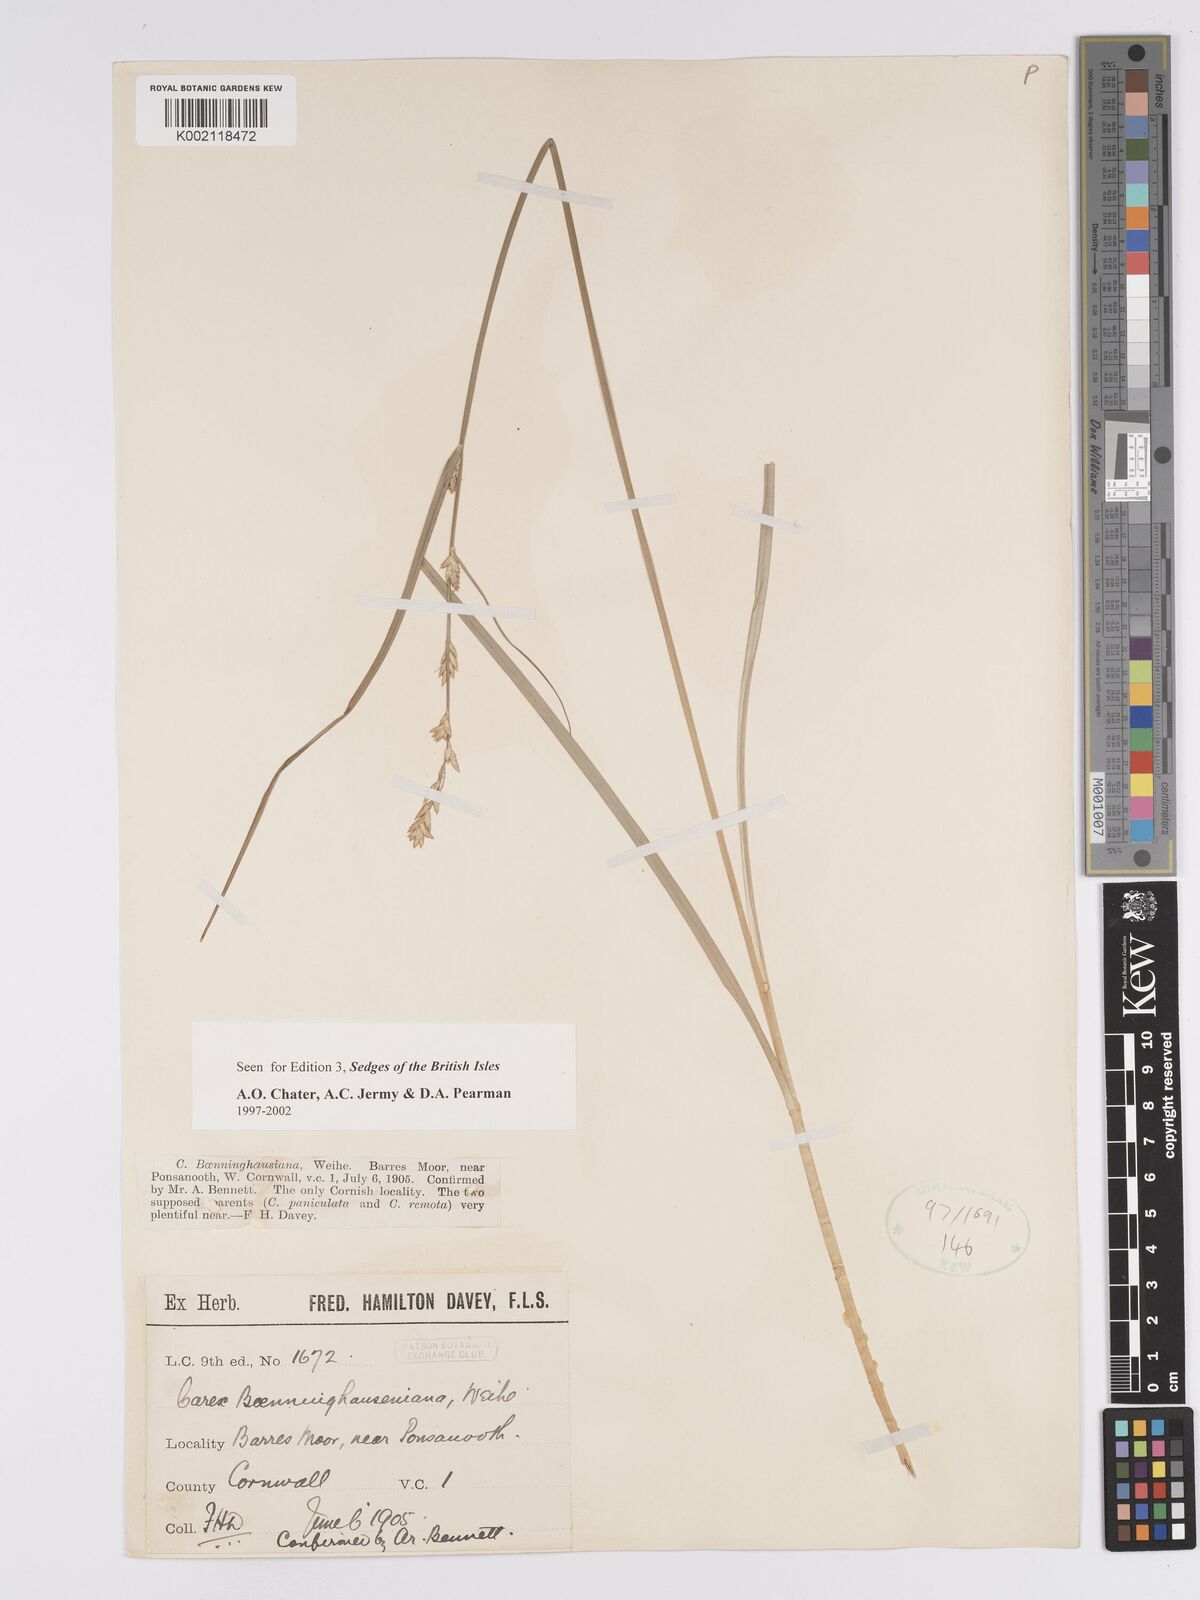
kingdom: Plantae
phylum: Tracheophyta
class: Liliopsida
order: Poales
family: Cyperaceae
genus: Carex
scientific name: Carex boenninghausiana
